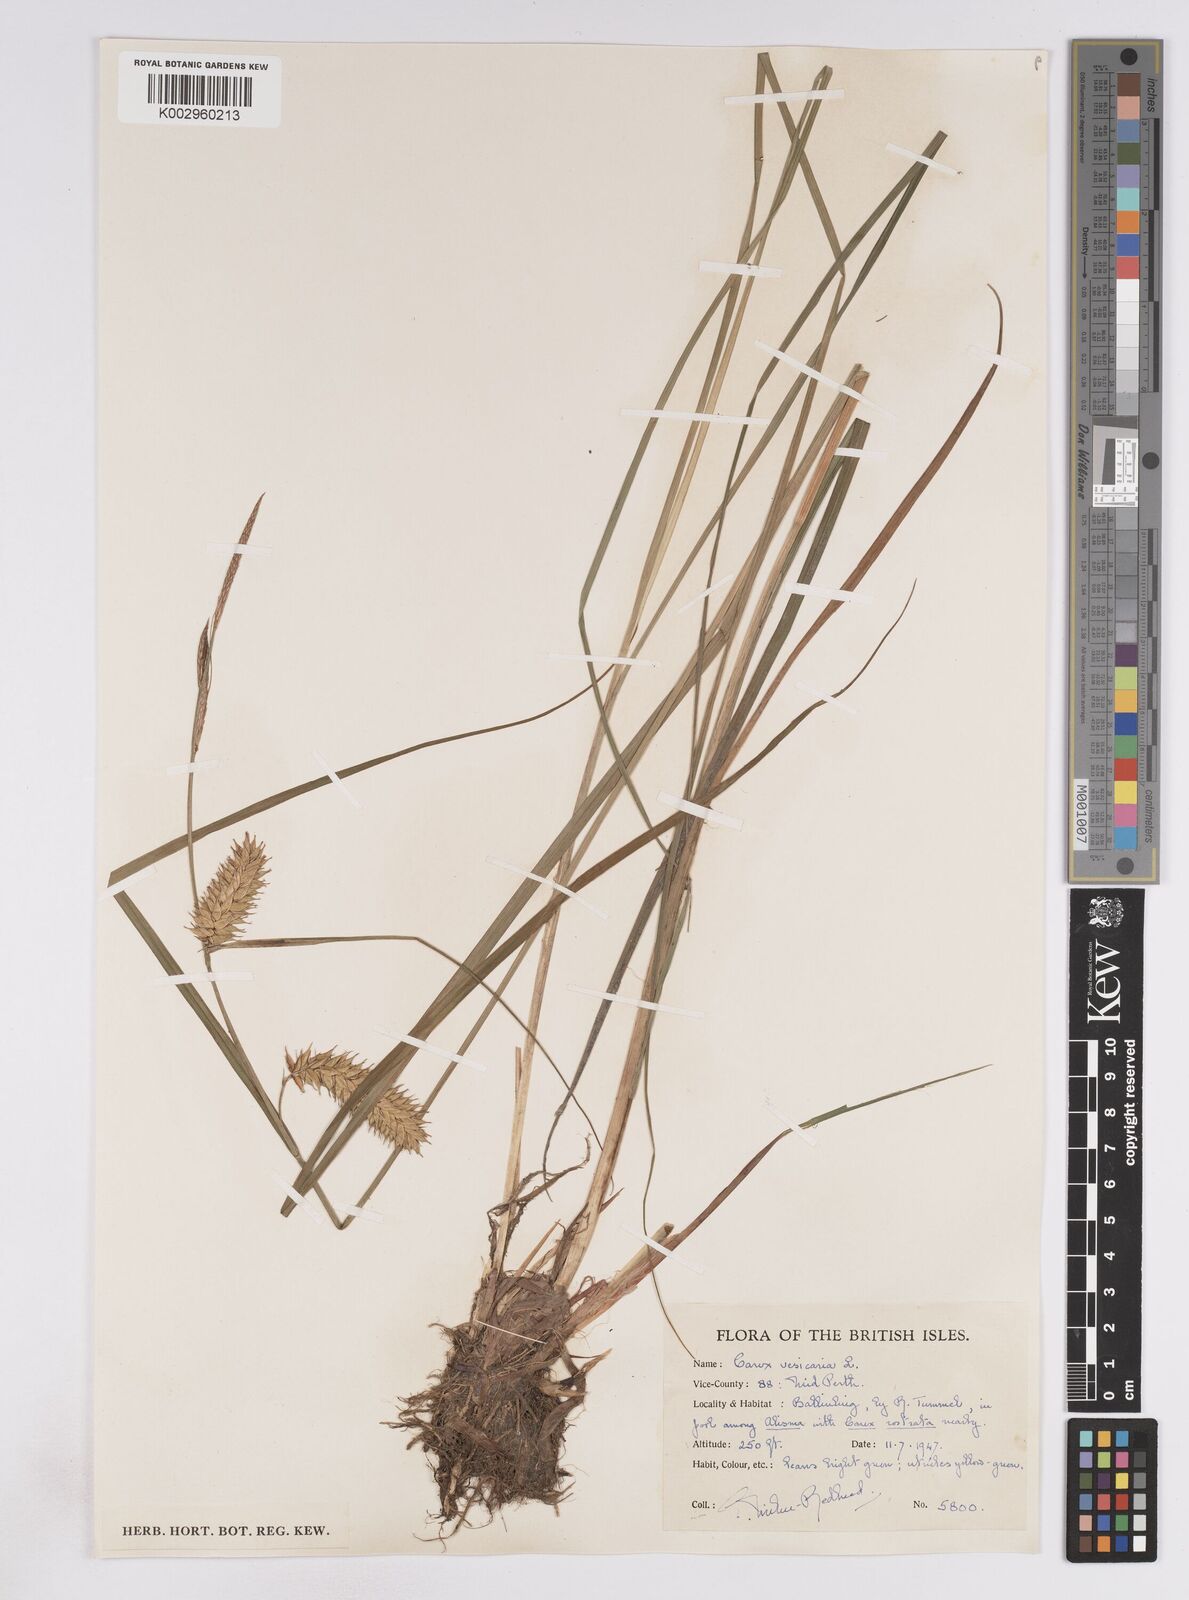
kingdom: Plantae
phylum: Tracheophyta
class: Liliopsida
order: Poales
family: Cyperaceae
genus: Carex
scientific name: Carex vesicaria
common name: Bladder-sedge
